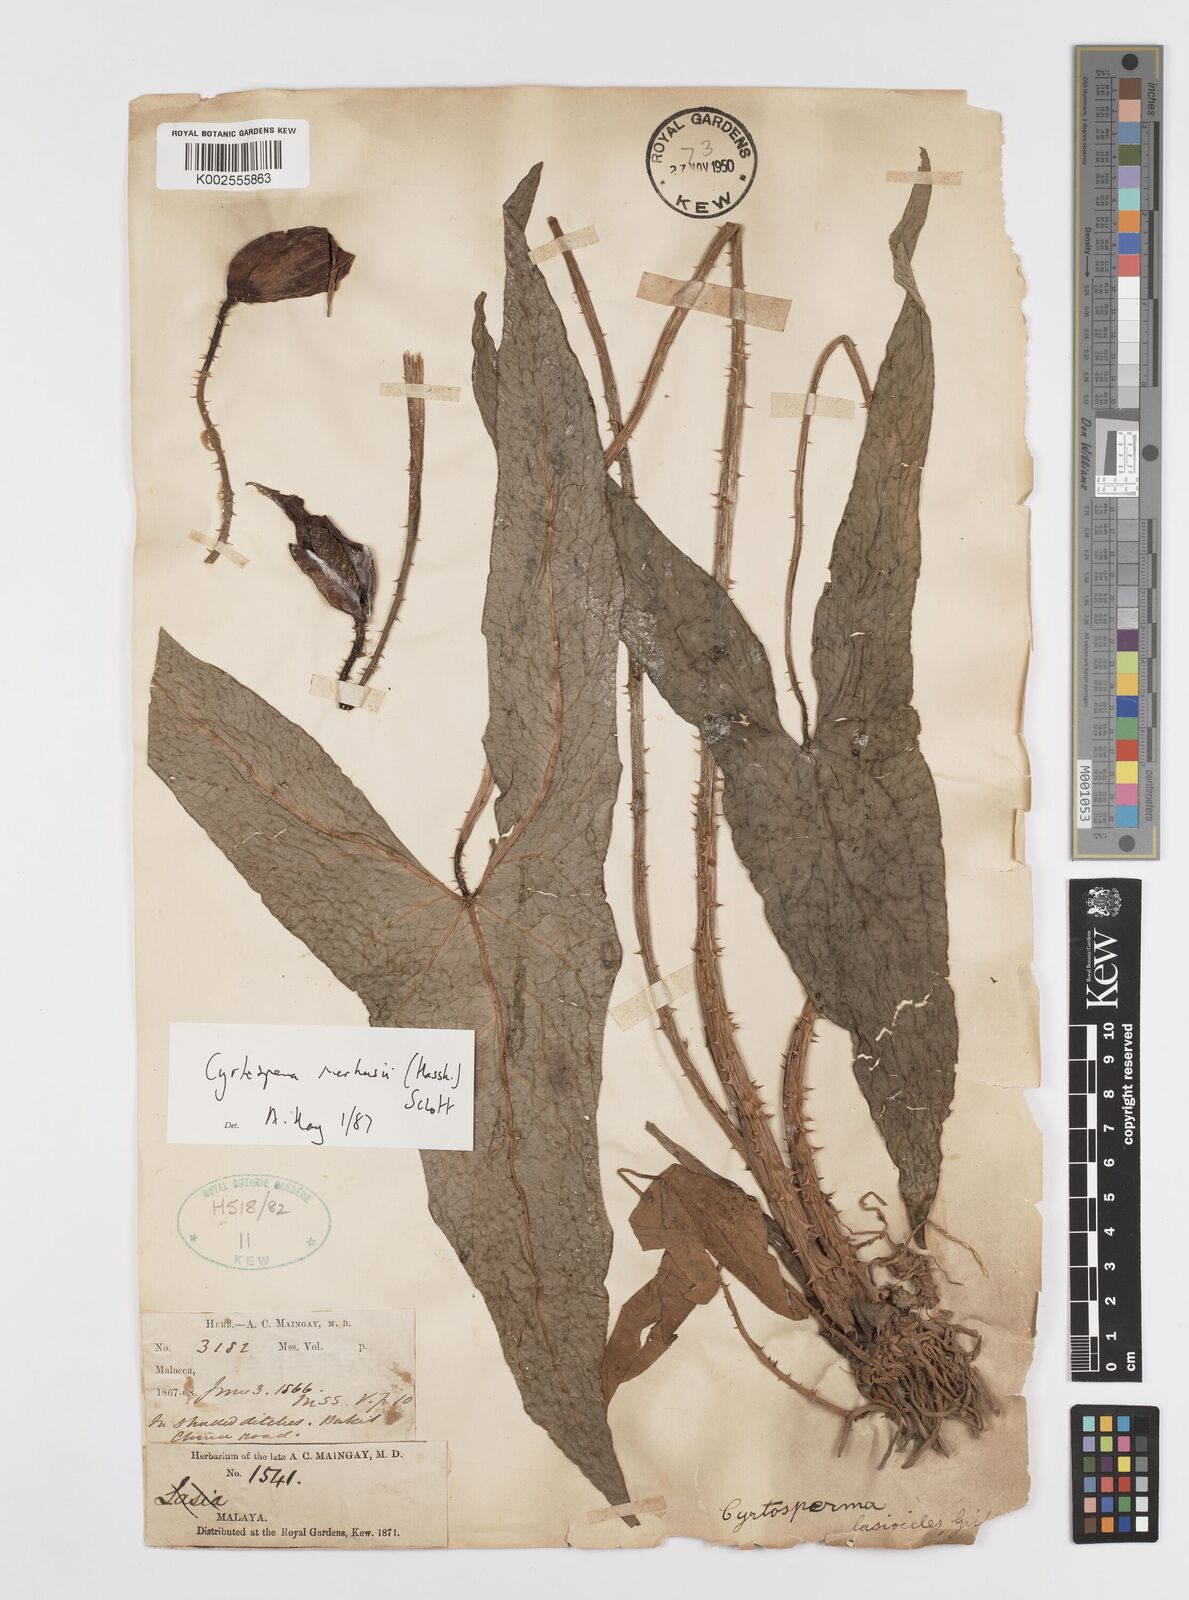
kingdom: Plantae
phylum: Tracheophyta
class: Liliopsida
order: Alismatales
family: Araceae
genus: Cyrtosperma
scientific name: Cyrtosperma merkusii
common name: Giant swamp-taro
